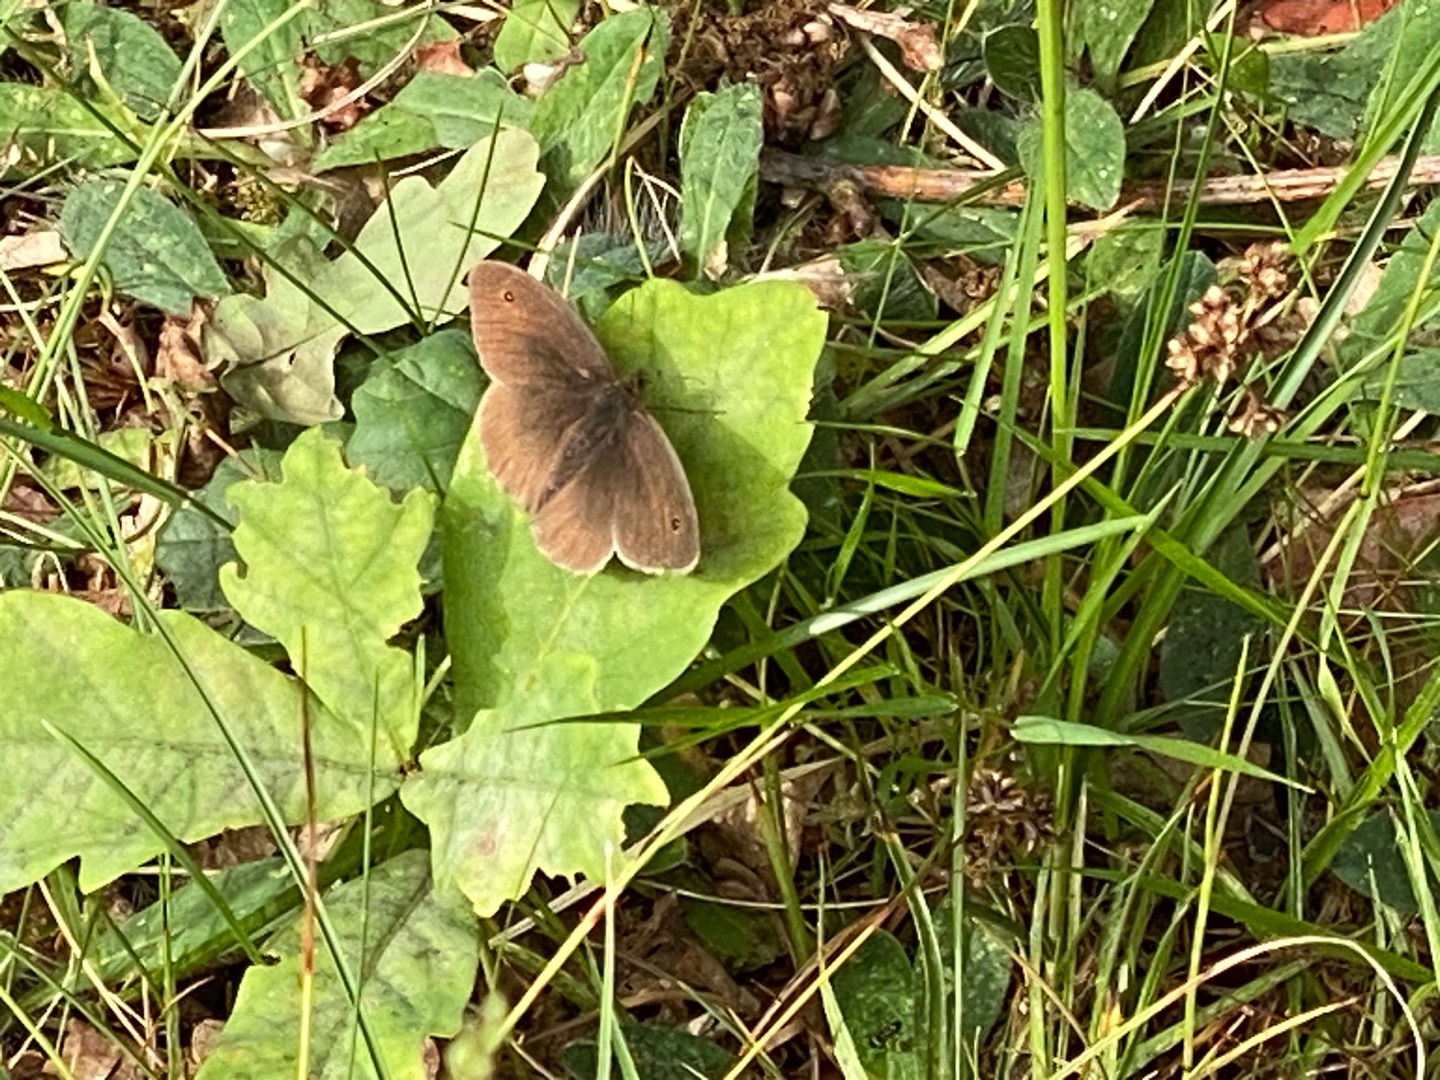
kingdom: Animalia
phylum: Arthropoda
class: Insecta
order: Lepidoptera
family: Nymphalidae
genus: Maniola
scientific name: Maniola jurtina
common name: Græsrandøje
